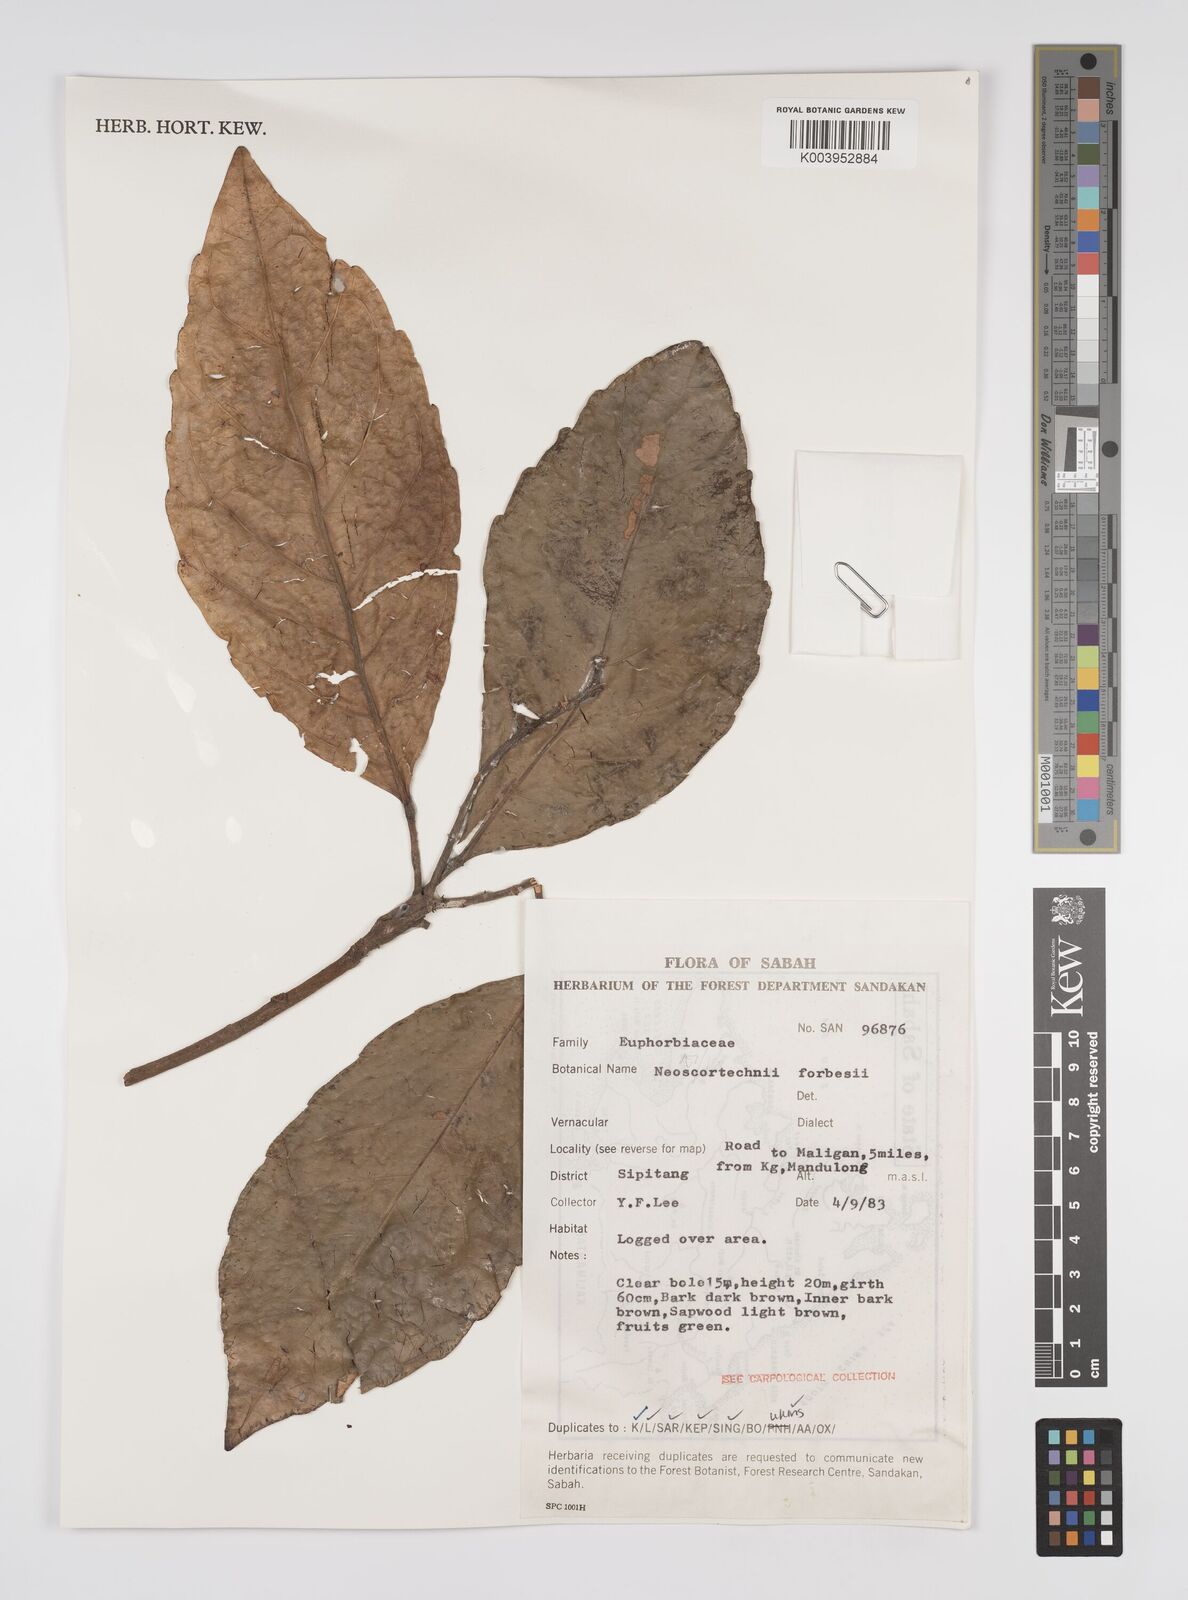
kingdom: Plantae
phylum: Tracheophyta
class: Magnoliopsida
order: Malpighiales
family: Euphorbiaceae
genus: Neoscortechinia
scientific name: Neoscortechinia philippinensis
